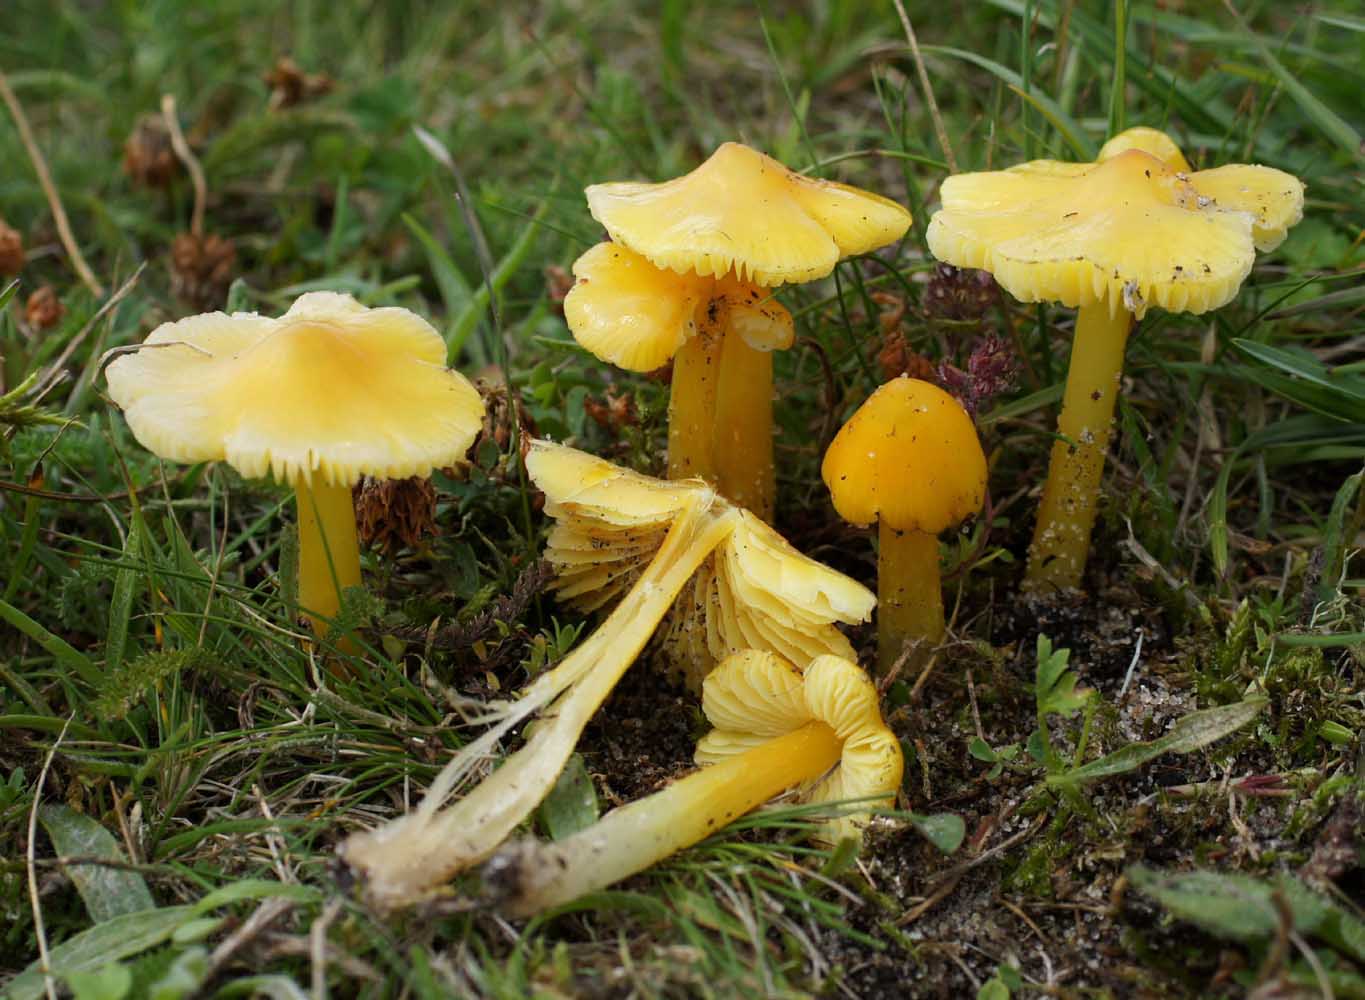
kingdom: Fungi
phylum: Basidiomycota
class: Agaricomycetes
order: Agaricales
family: Hygrophoraceae
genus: Hygrocybe
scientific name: Hygrocybe acutoconica
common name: spidspuklet vokshat
